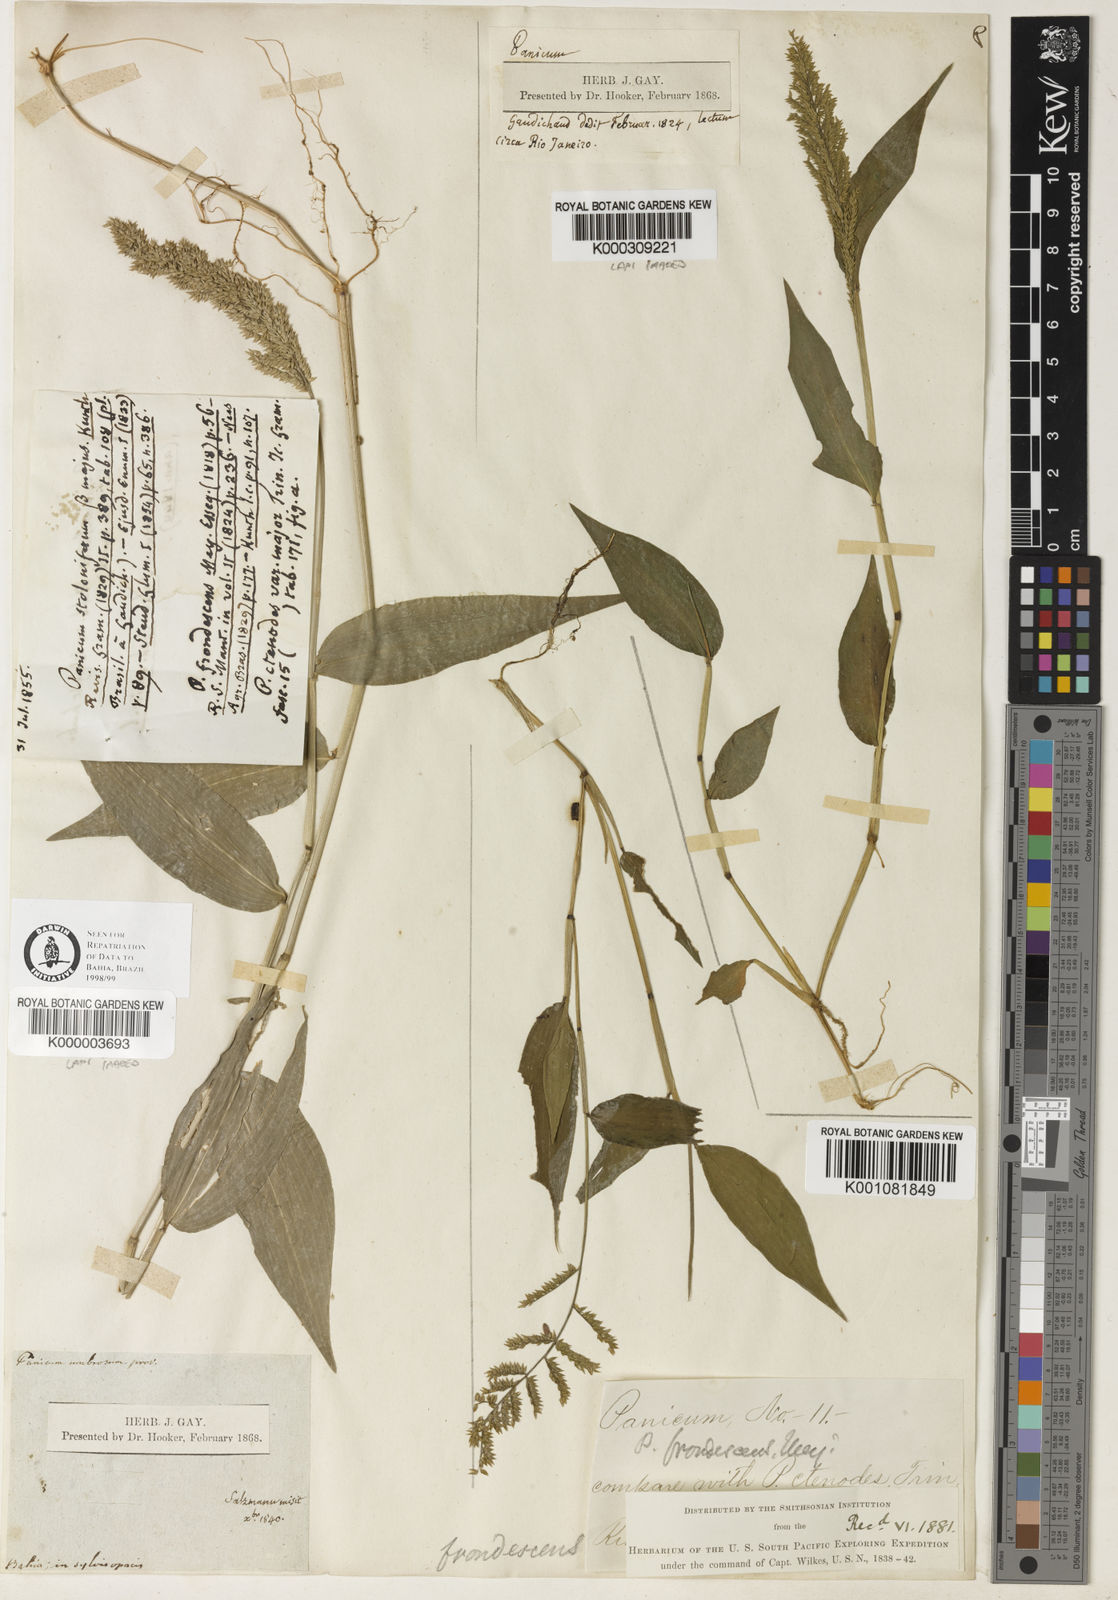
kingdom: Plantae
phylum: Tracheophyta
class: Liliopsida
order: Poales
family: Poaceae
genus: Ocellochloa
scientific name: Ocellochloa stolonifera
